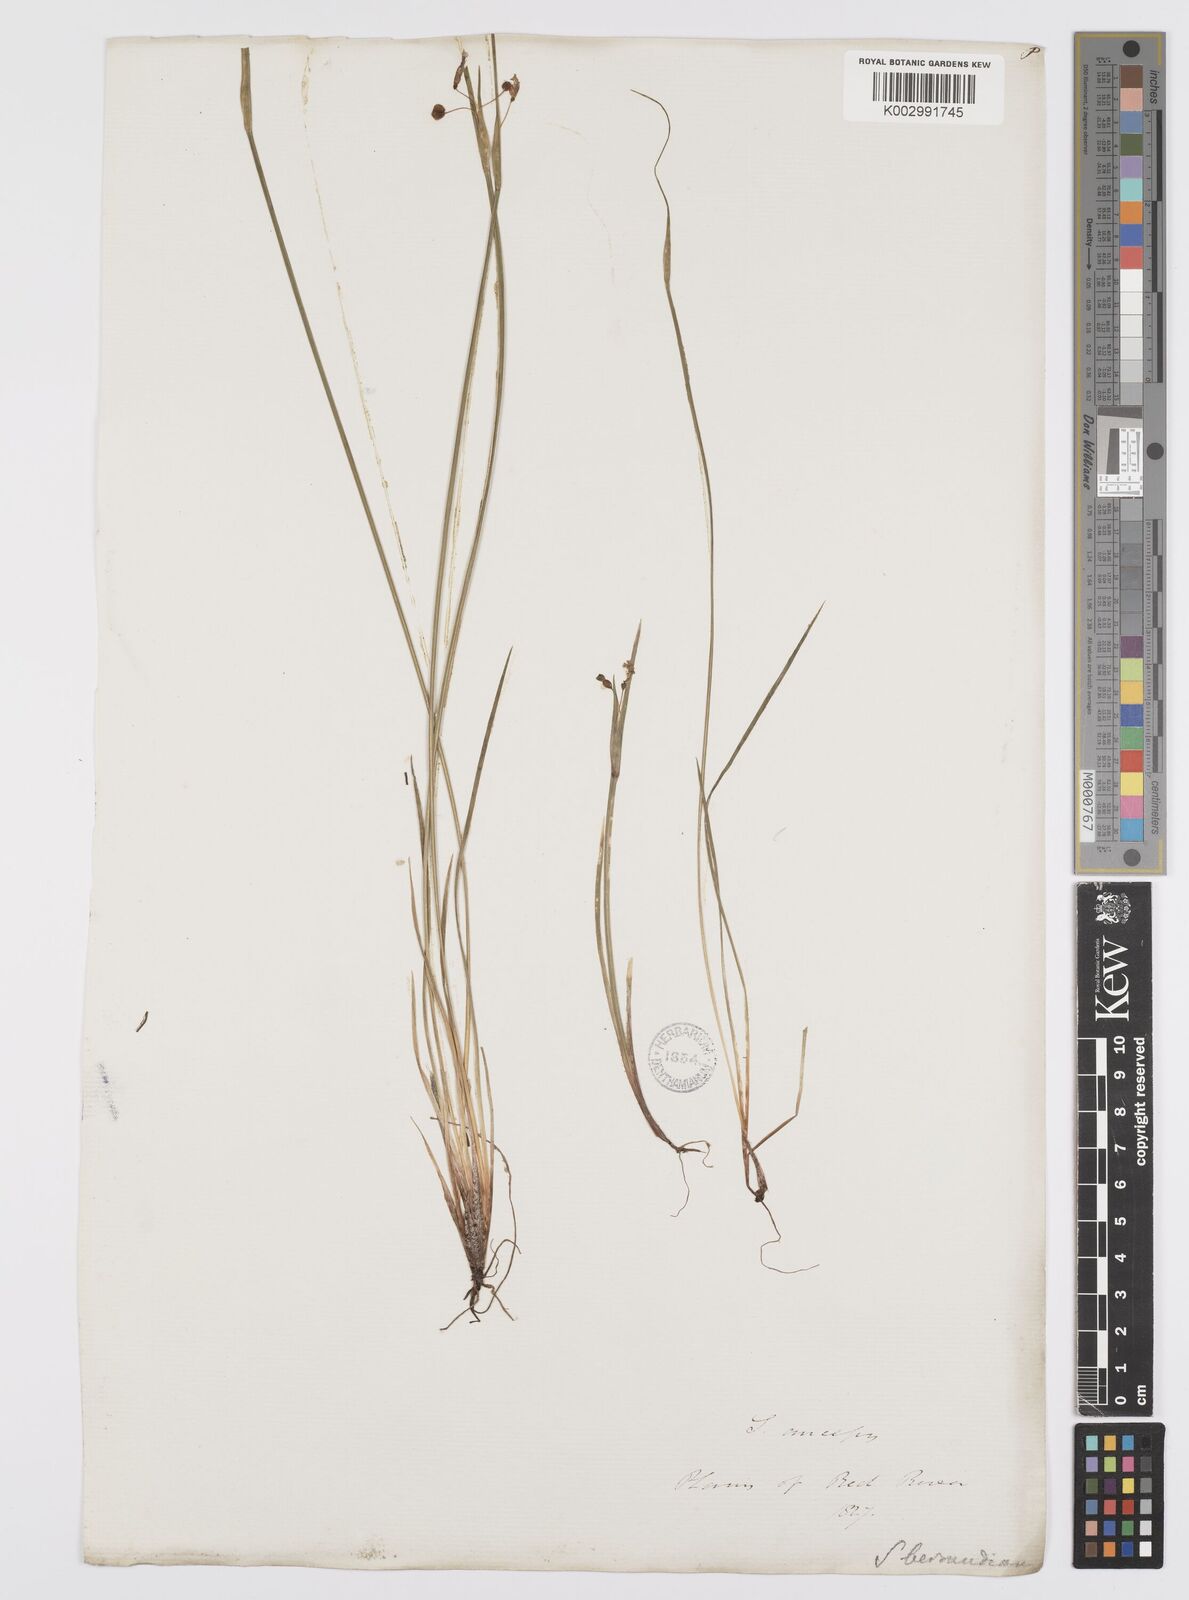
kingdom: Plantae
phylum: Tracheophyta
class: Liliopsida
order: Asparagales
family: Iridaceae
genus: Sisyrinchium
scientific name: Sisyrinchium bermudiana
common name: Blue-eyed-grass
